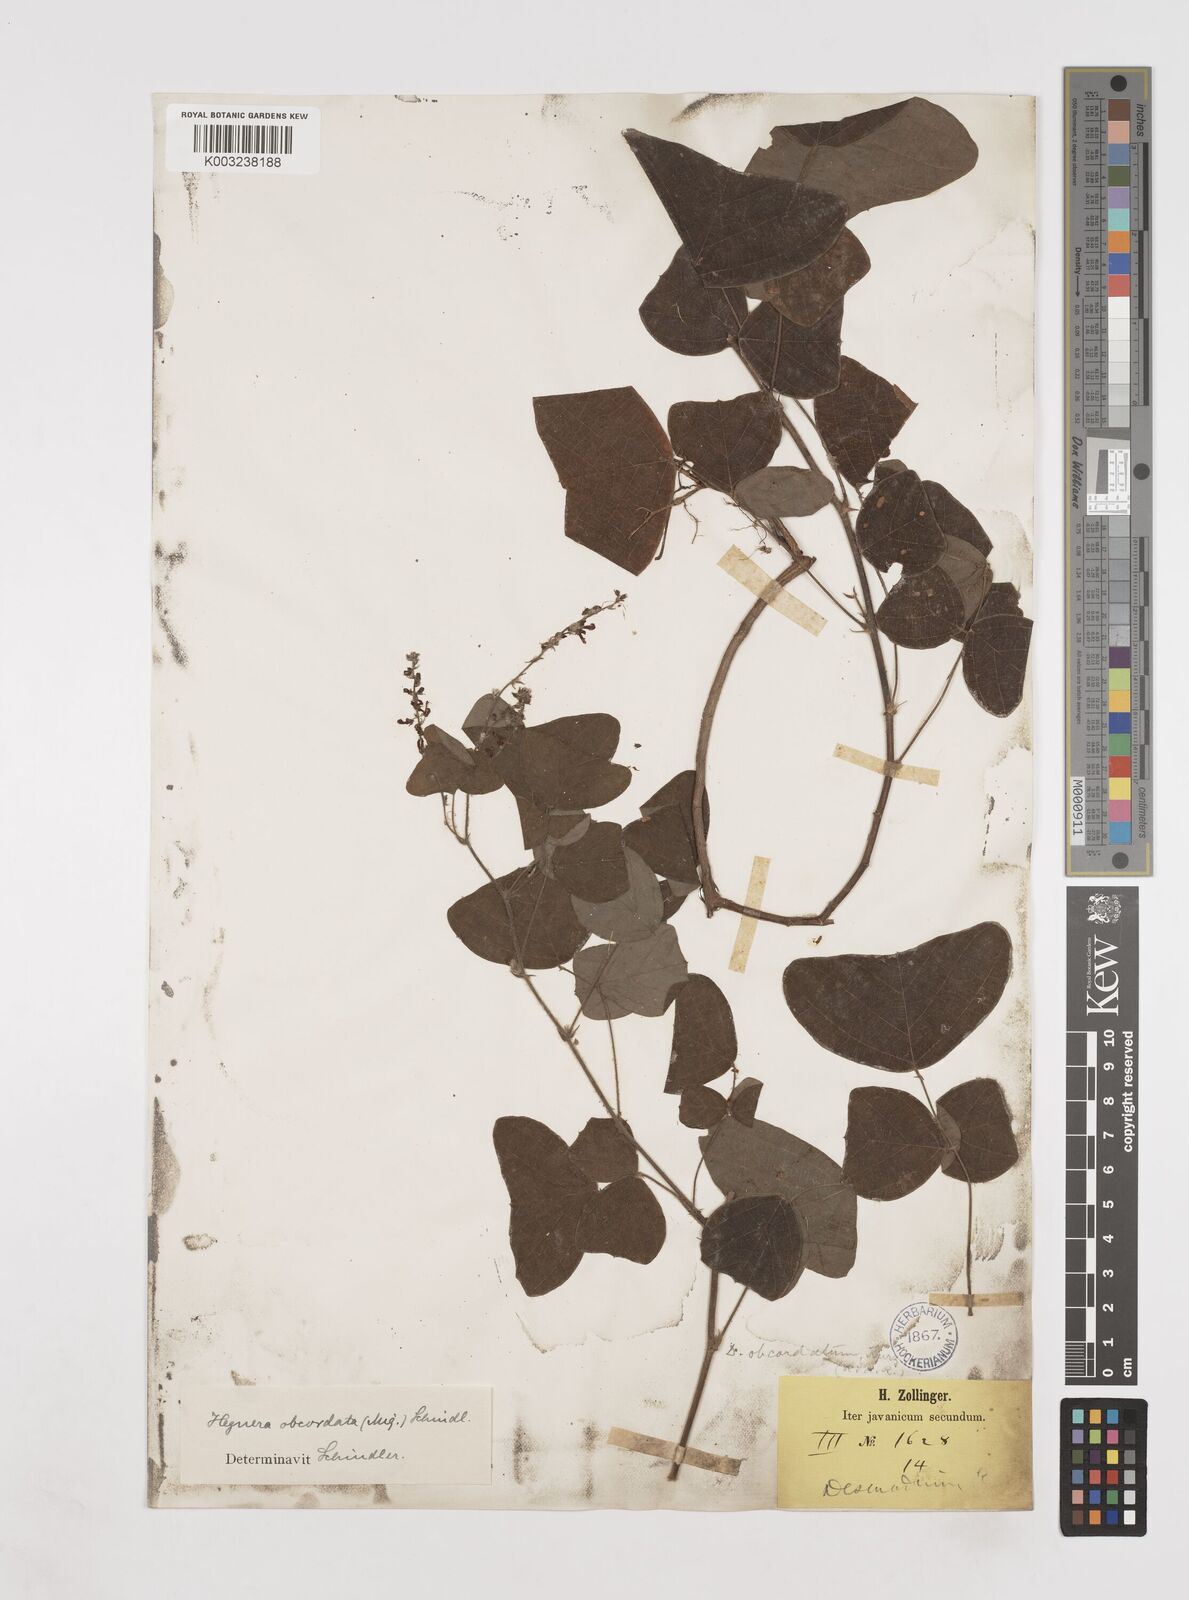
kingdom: Plantae
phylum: Tracheophyta
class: Magnoliopsida
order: Fabales
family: Fabaceae
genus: Hegnera
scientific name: Hegnera obcordata
